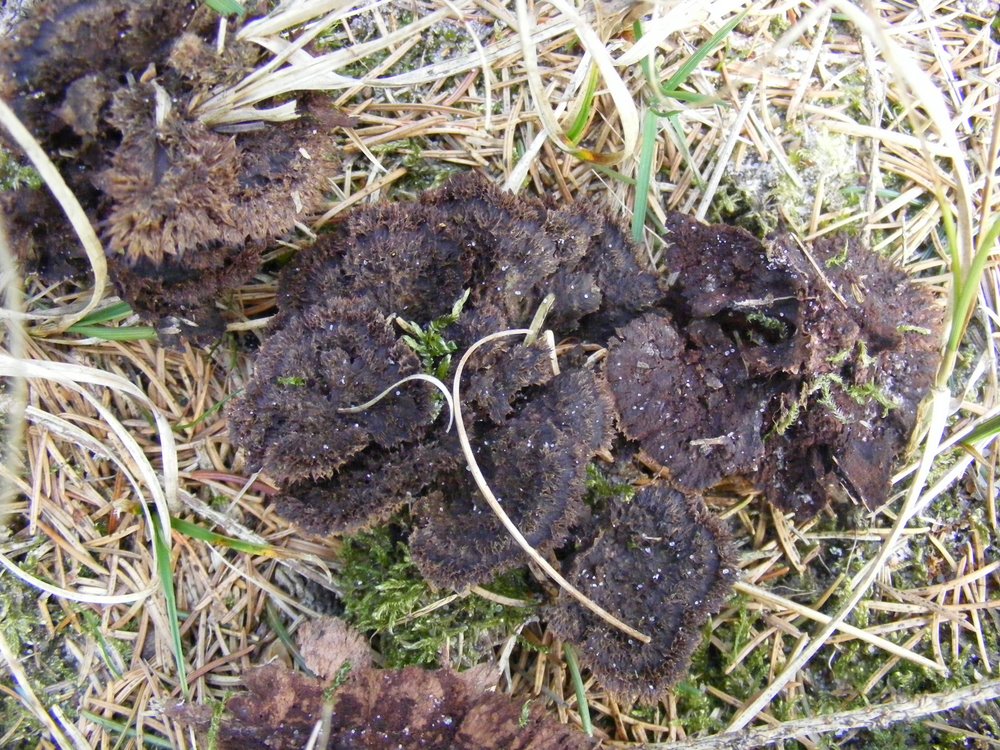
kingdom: Fungi
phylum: Basidiomycota
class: Agaricomycetes
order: Thelephorales
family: Thelephoraceae
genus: Thelephora
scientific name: Thelephora terrestris
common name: fliget frynsesvamp
